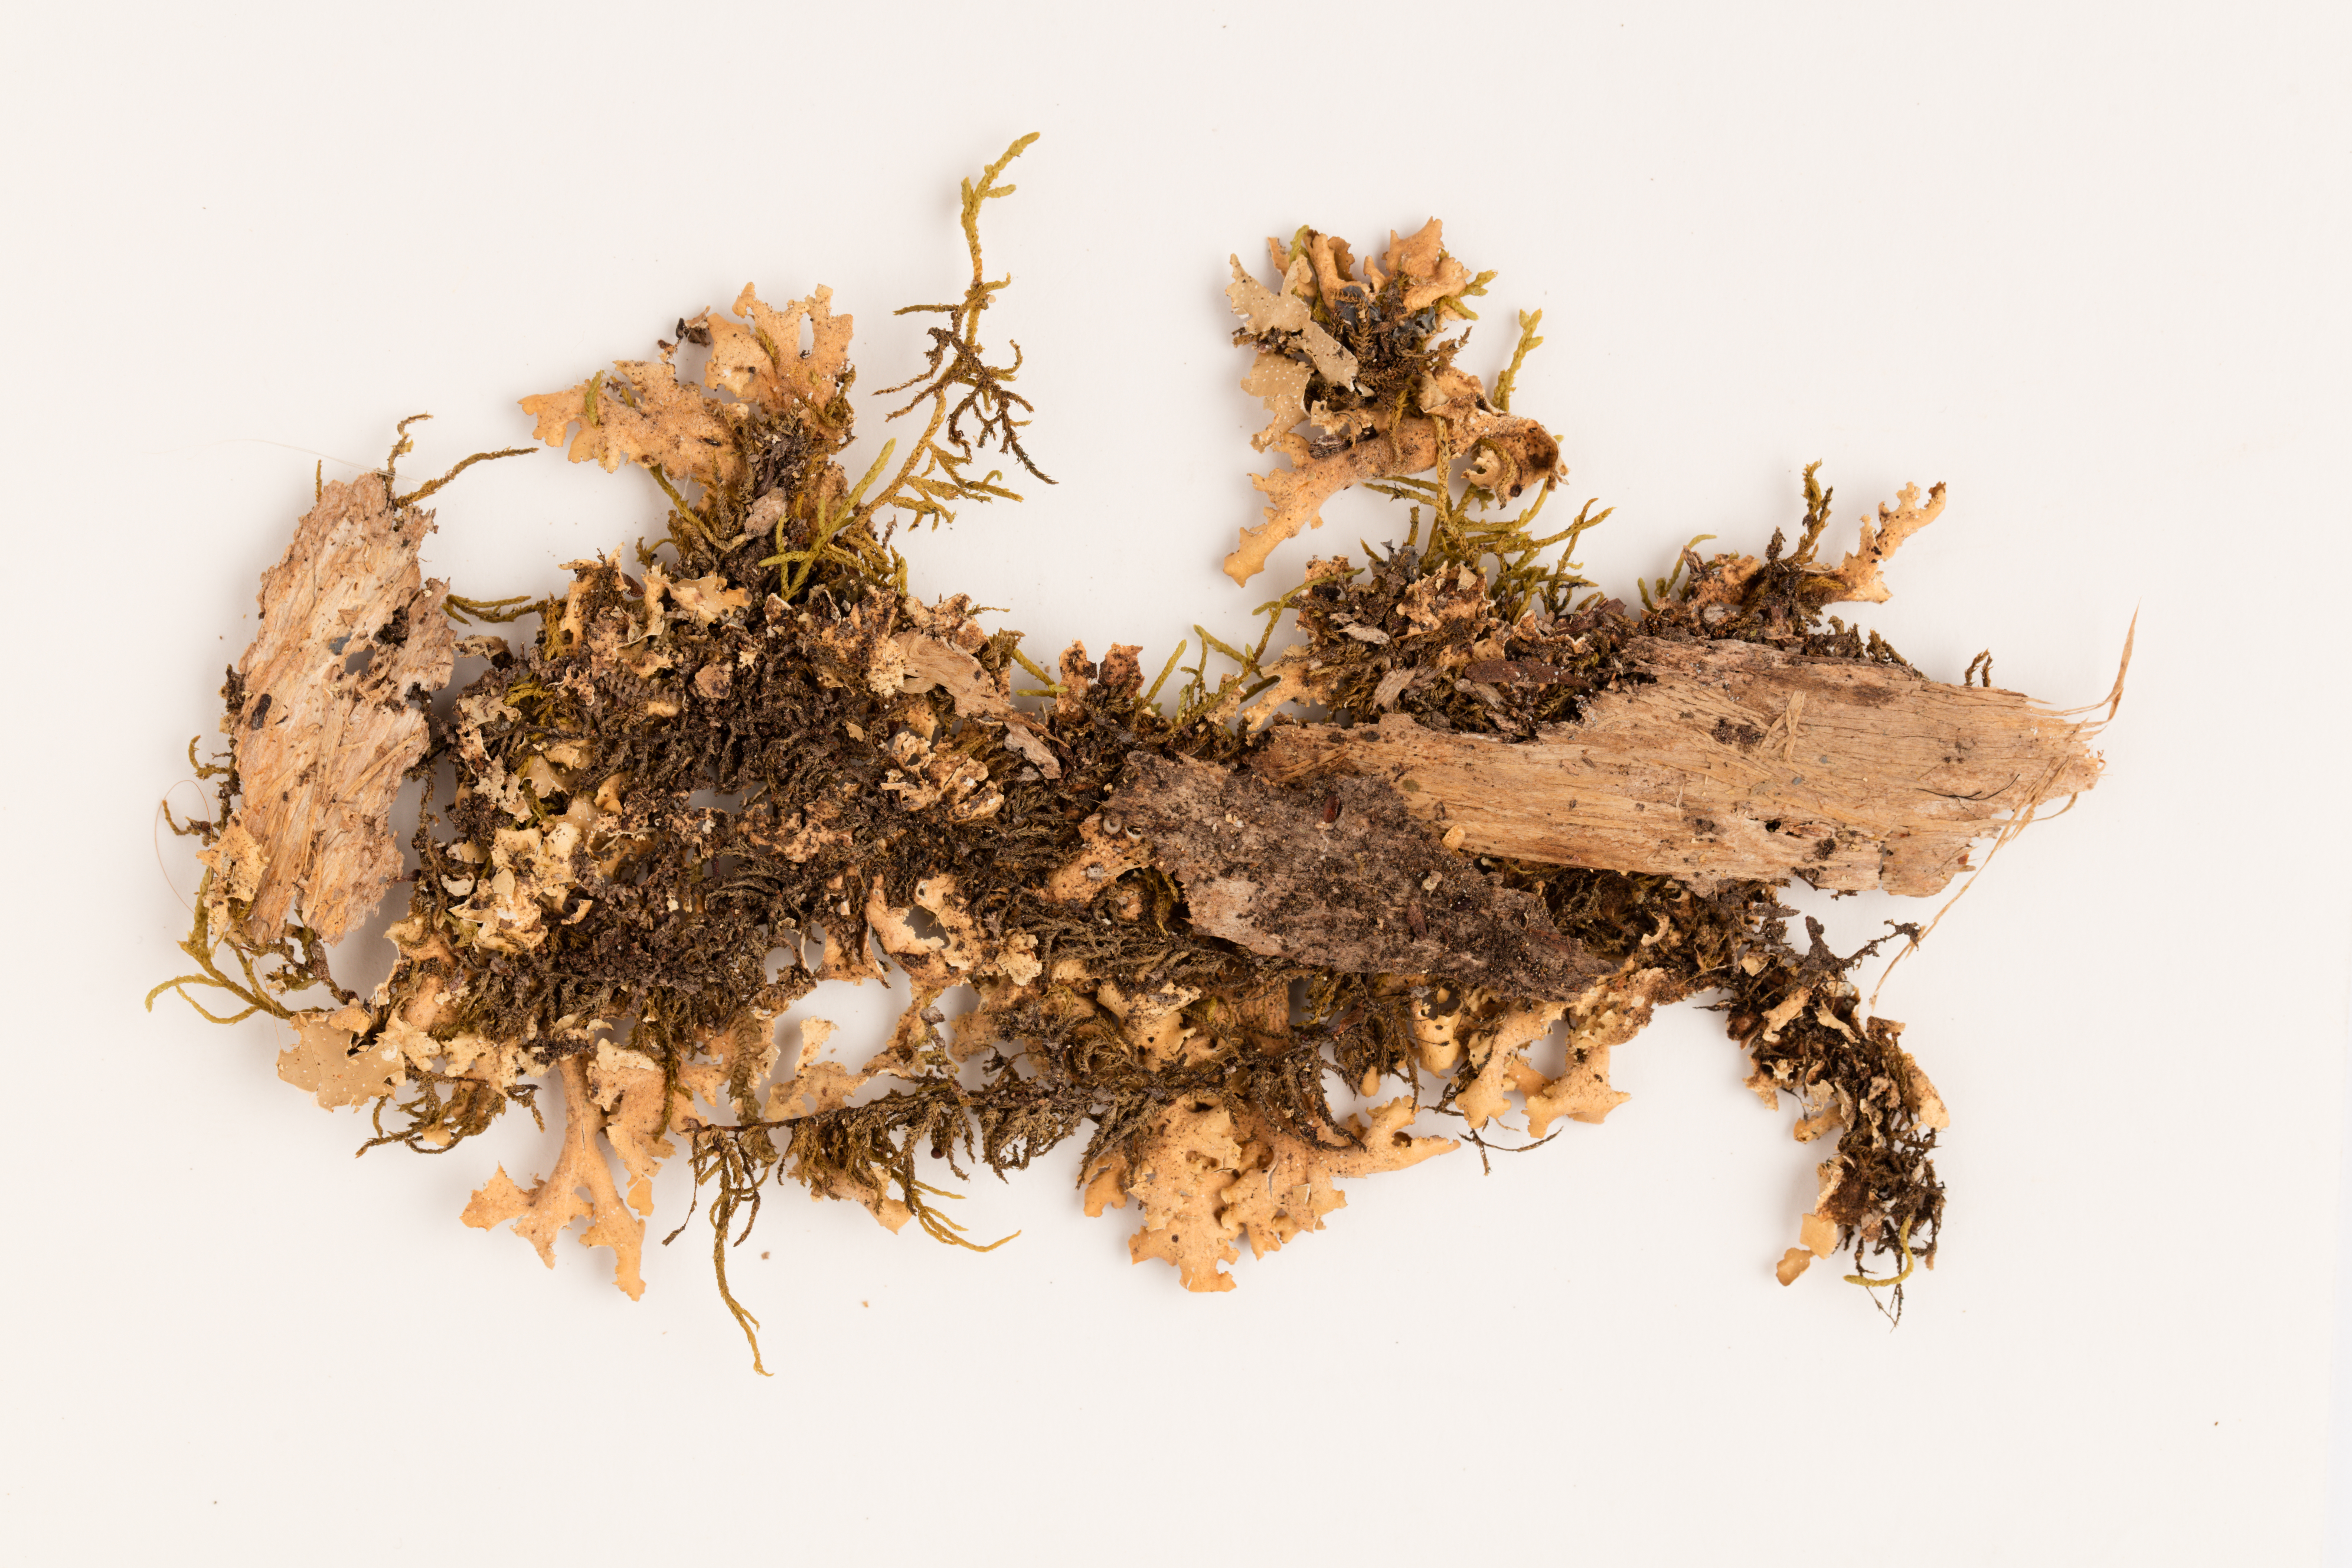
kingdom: Fungi
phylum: Ascomycota
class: Lecanoromycetes
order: Peltigerales
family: Lobariaceae
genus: Pseudocyphellaria
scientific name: Pseudocyphellaria episticta
